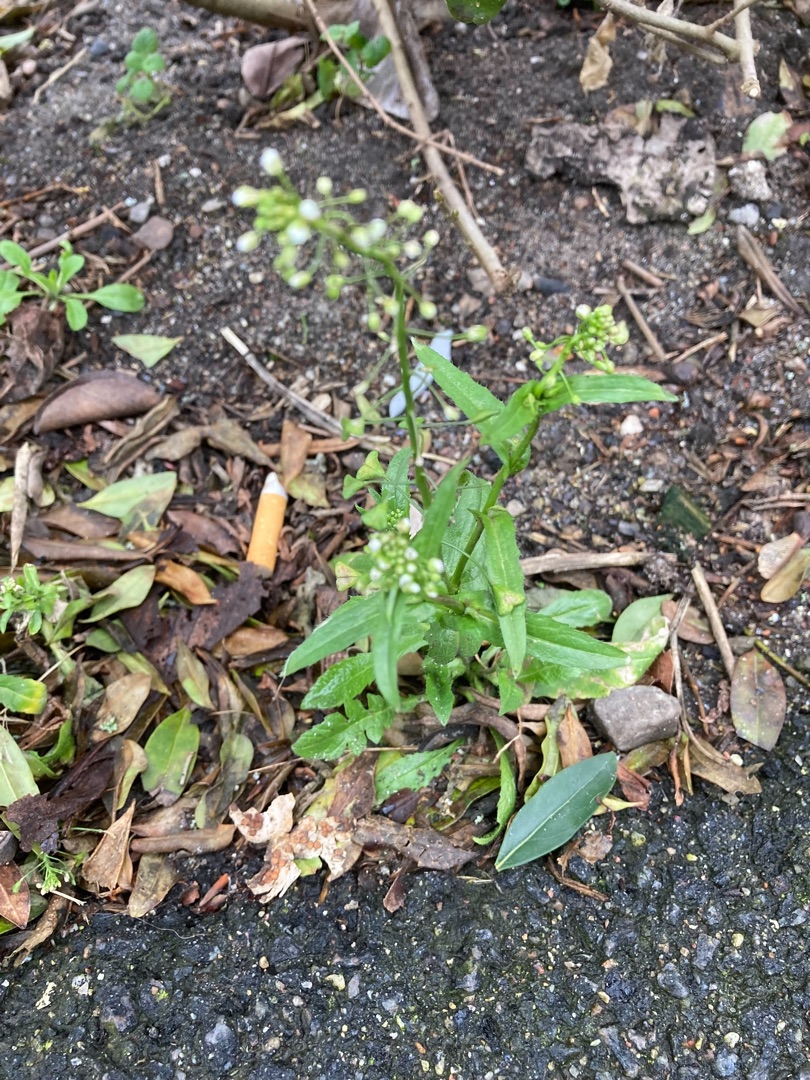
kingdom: Plantae
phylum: Tracheophyta
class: Magnoliopsida
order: Brassicales
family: Brassicaceae
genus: Capsella
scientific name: Capsella bursa-pastoris
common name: Hyrdetaske
